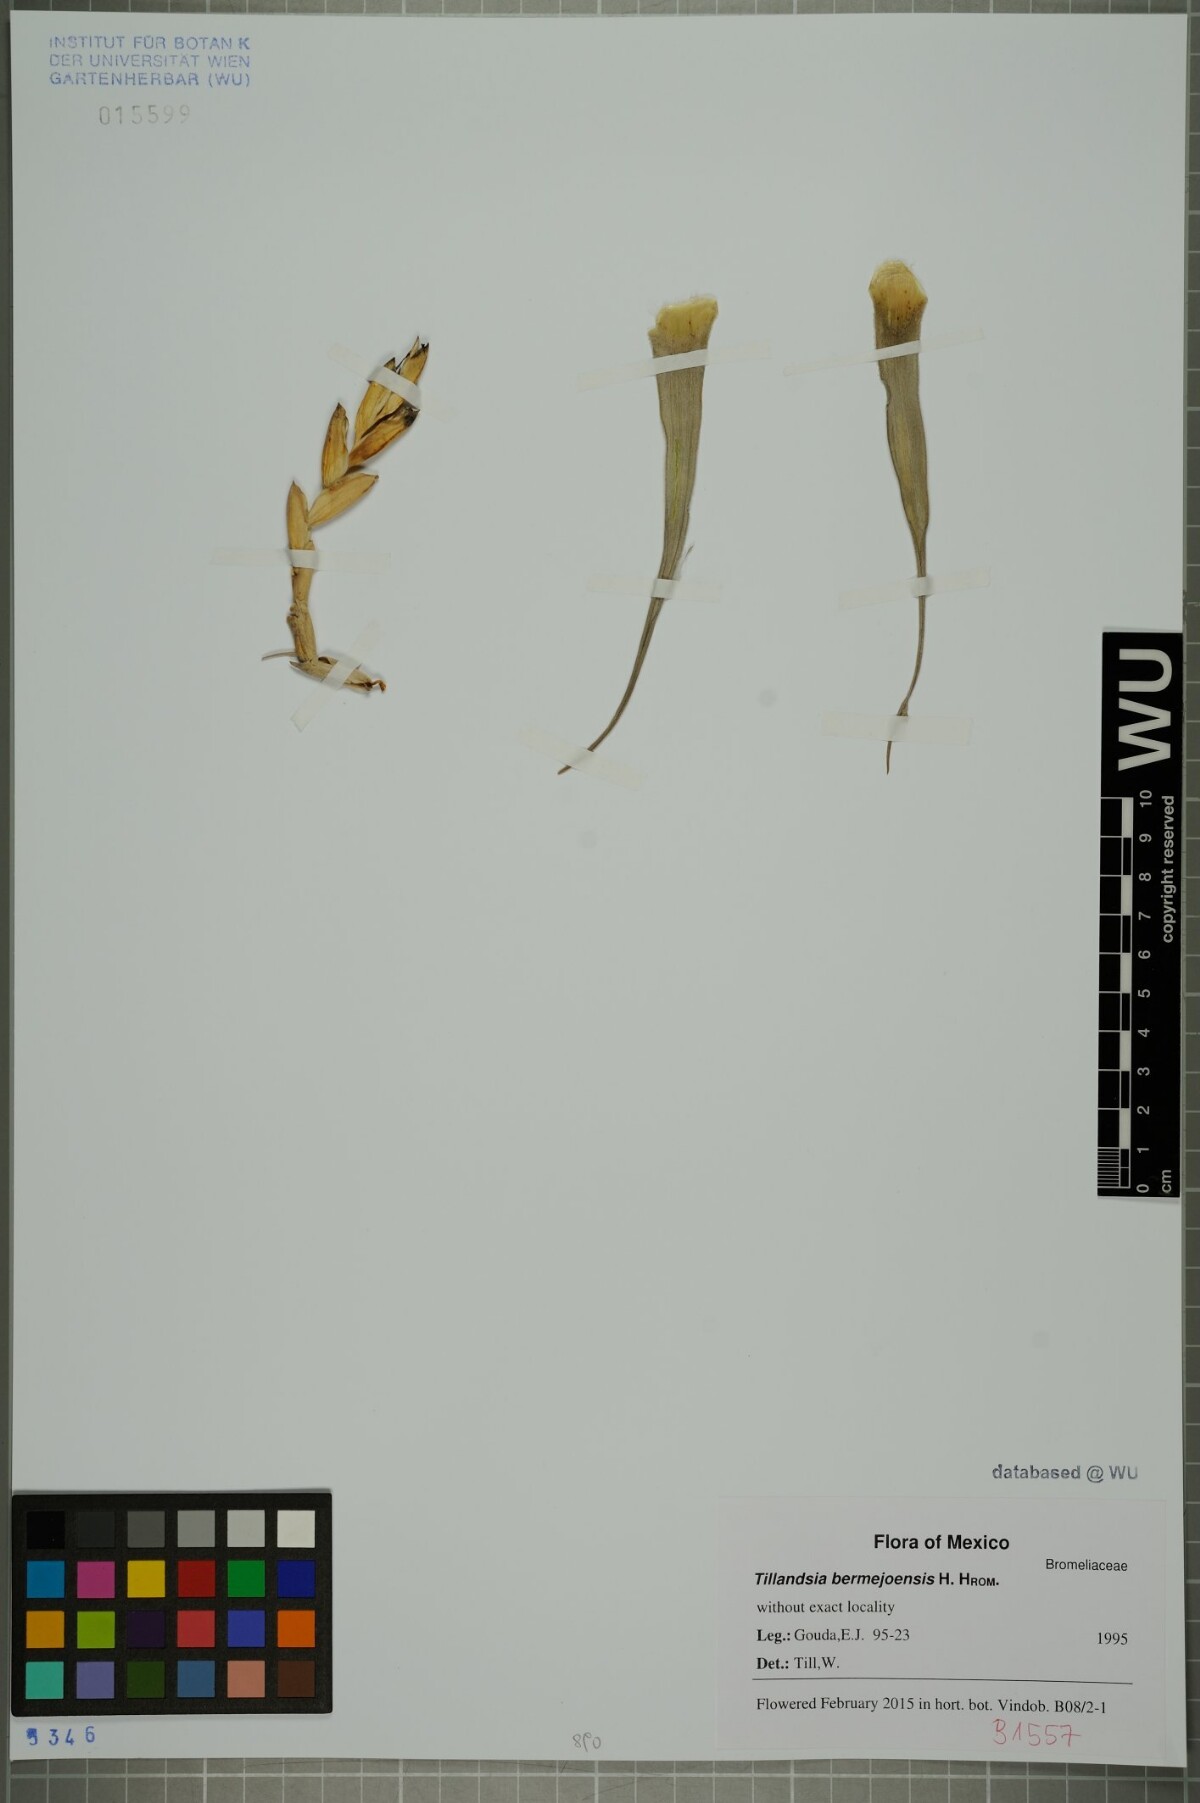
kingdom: Plantae
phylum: Tracheophyta
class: Liliopsida
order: Poales
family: Bromeliaceae
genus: Tillandsia
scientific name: Tillandsia bermejoensis
